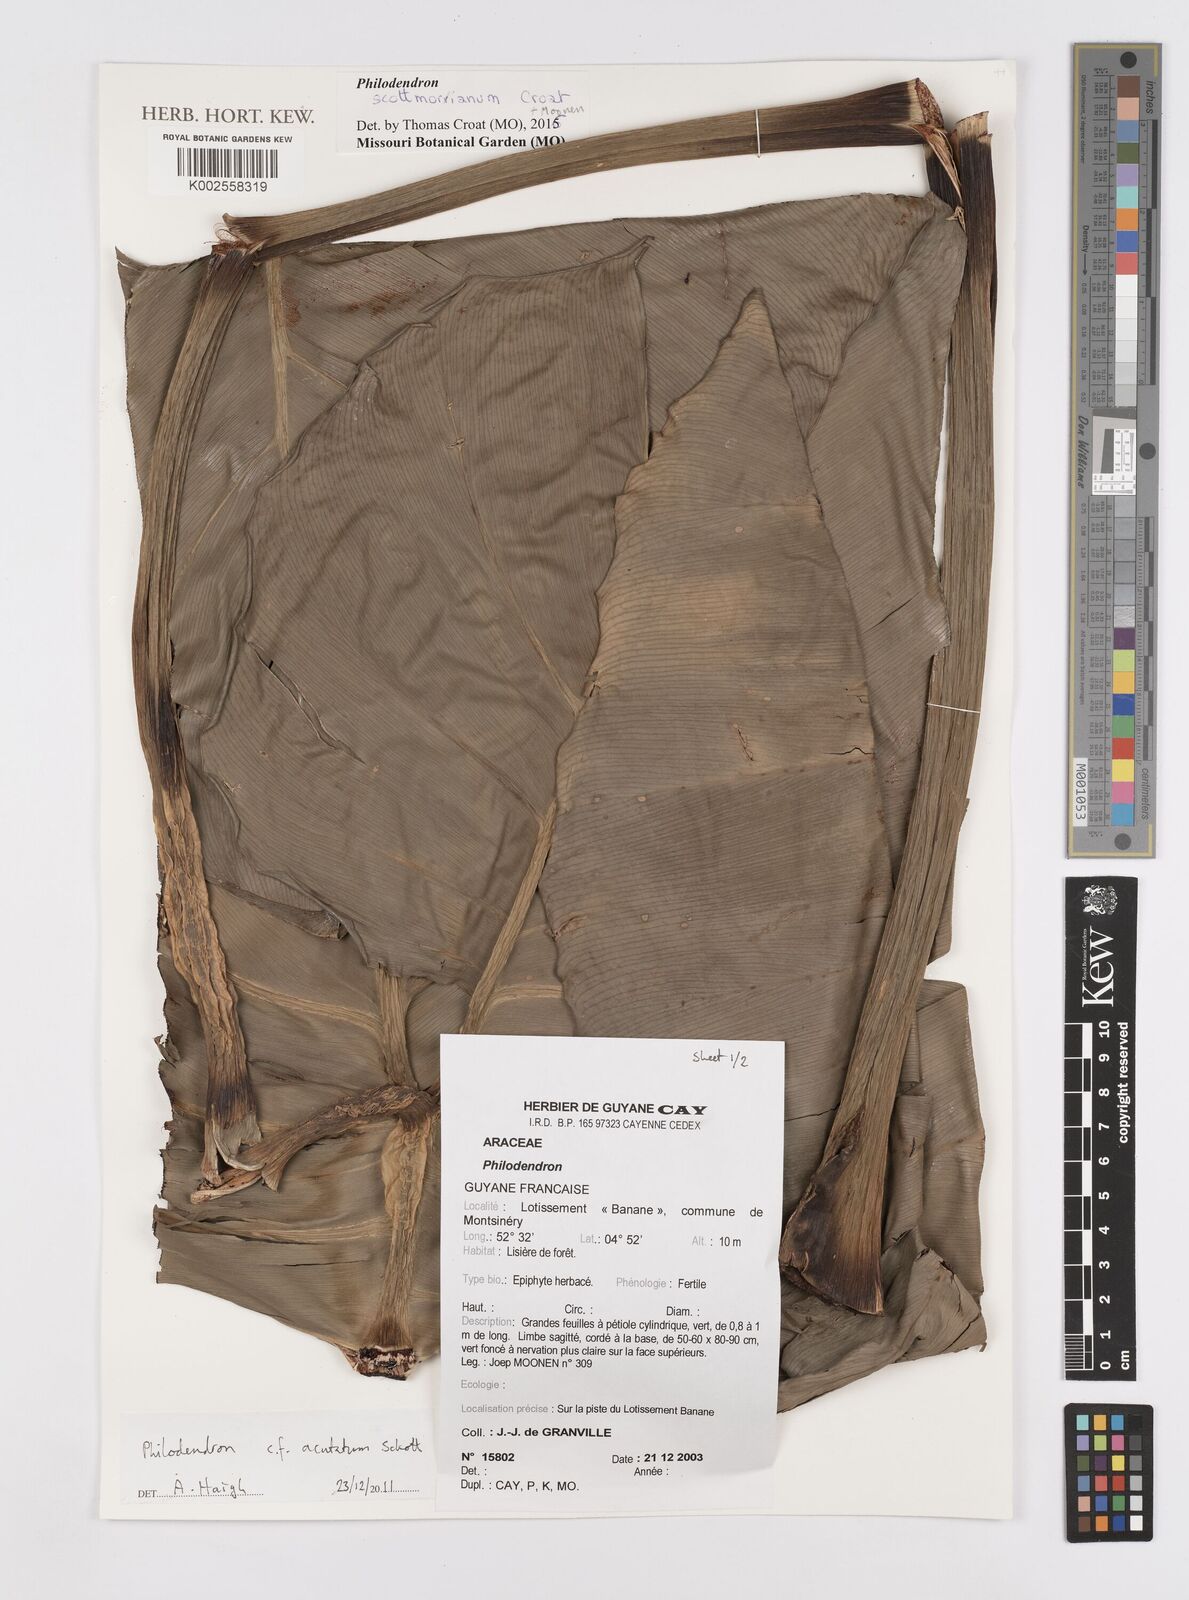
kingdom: Plantae
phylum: Tracheophyta
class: Liliopsida
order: Alismatales
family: Araceae
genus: Philodendron
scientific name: Philodendron scottmorianum
